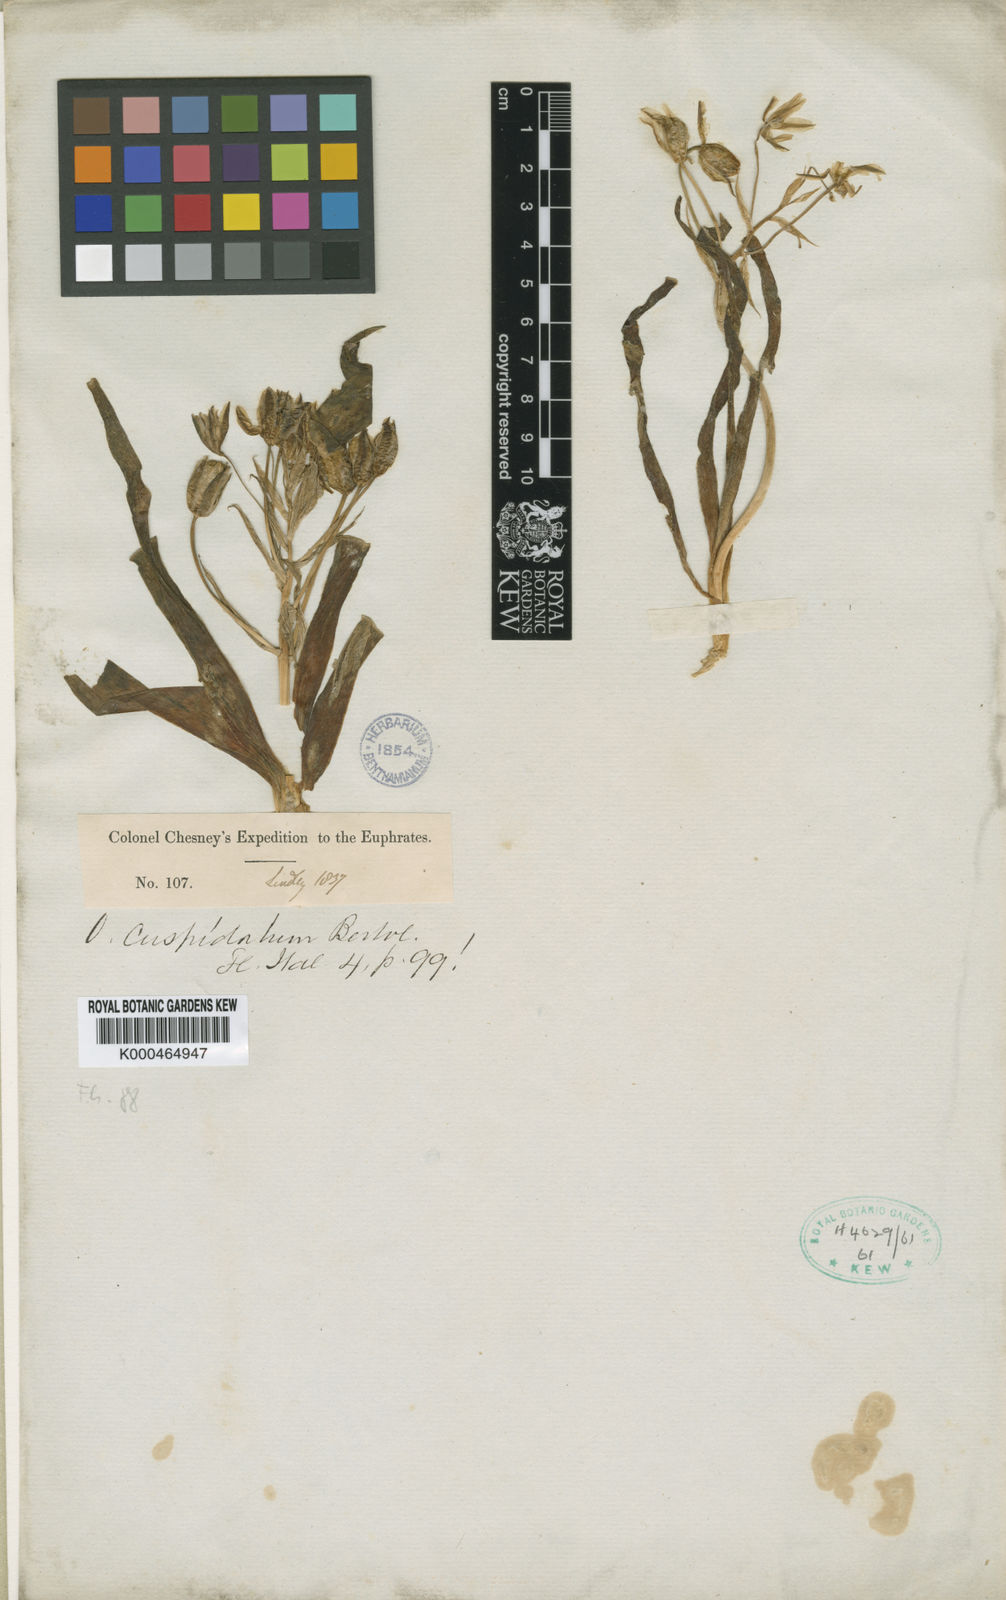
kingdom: Plantae
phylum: Tracheophyta
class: Liliopsida
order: Asparagales
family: Asparagaceae
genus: Ornithogalum
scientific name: Ornithogalum
